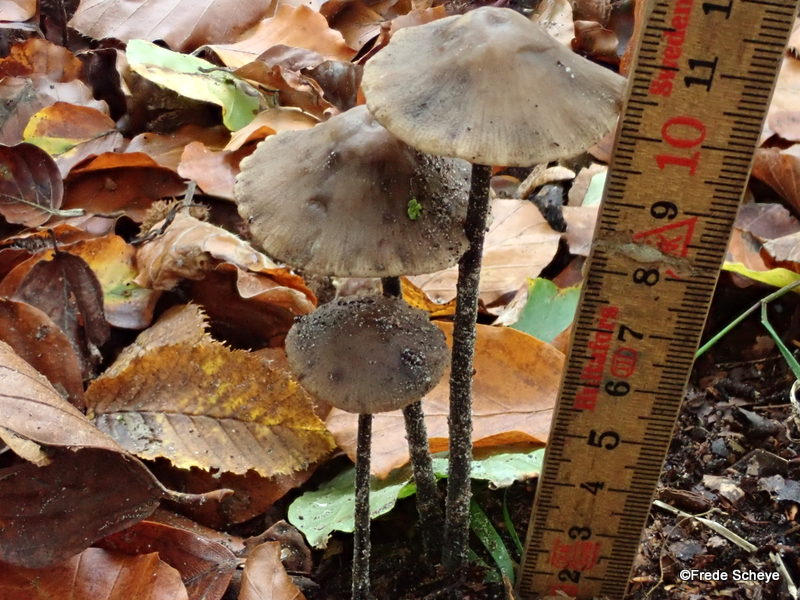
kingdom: Fungi
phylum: Basidiomycota
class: Agaricomycetes
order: Agaricales
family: Omphalotaceae
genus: Mycetinis
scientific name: Mycetinis alliaceus
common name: stor løghat
